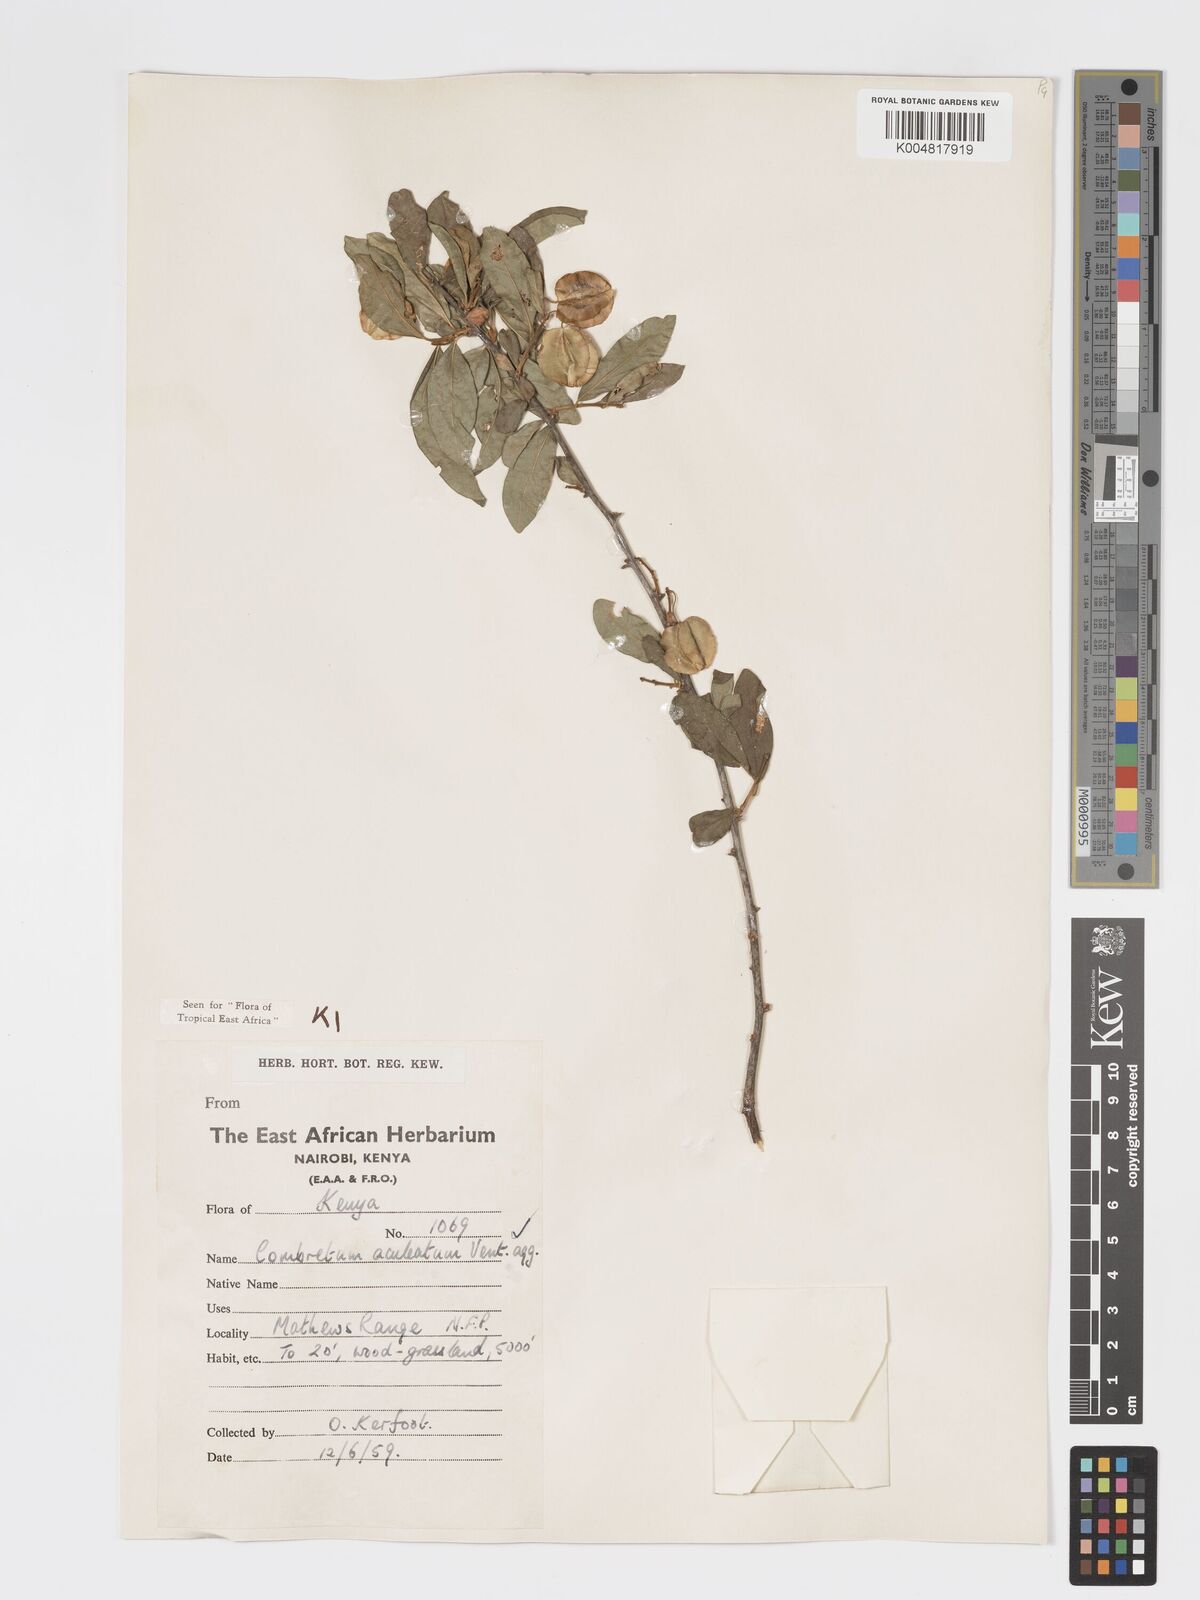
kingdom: Plantae
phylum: Tracheophyta
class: Magnoliopsida
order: Myrtales
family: Combretaceae
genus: Combretum
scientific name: Combretum aculeatum
